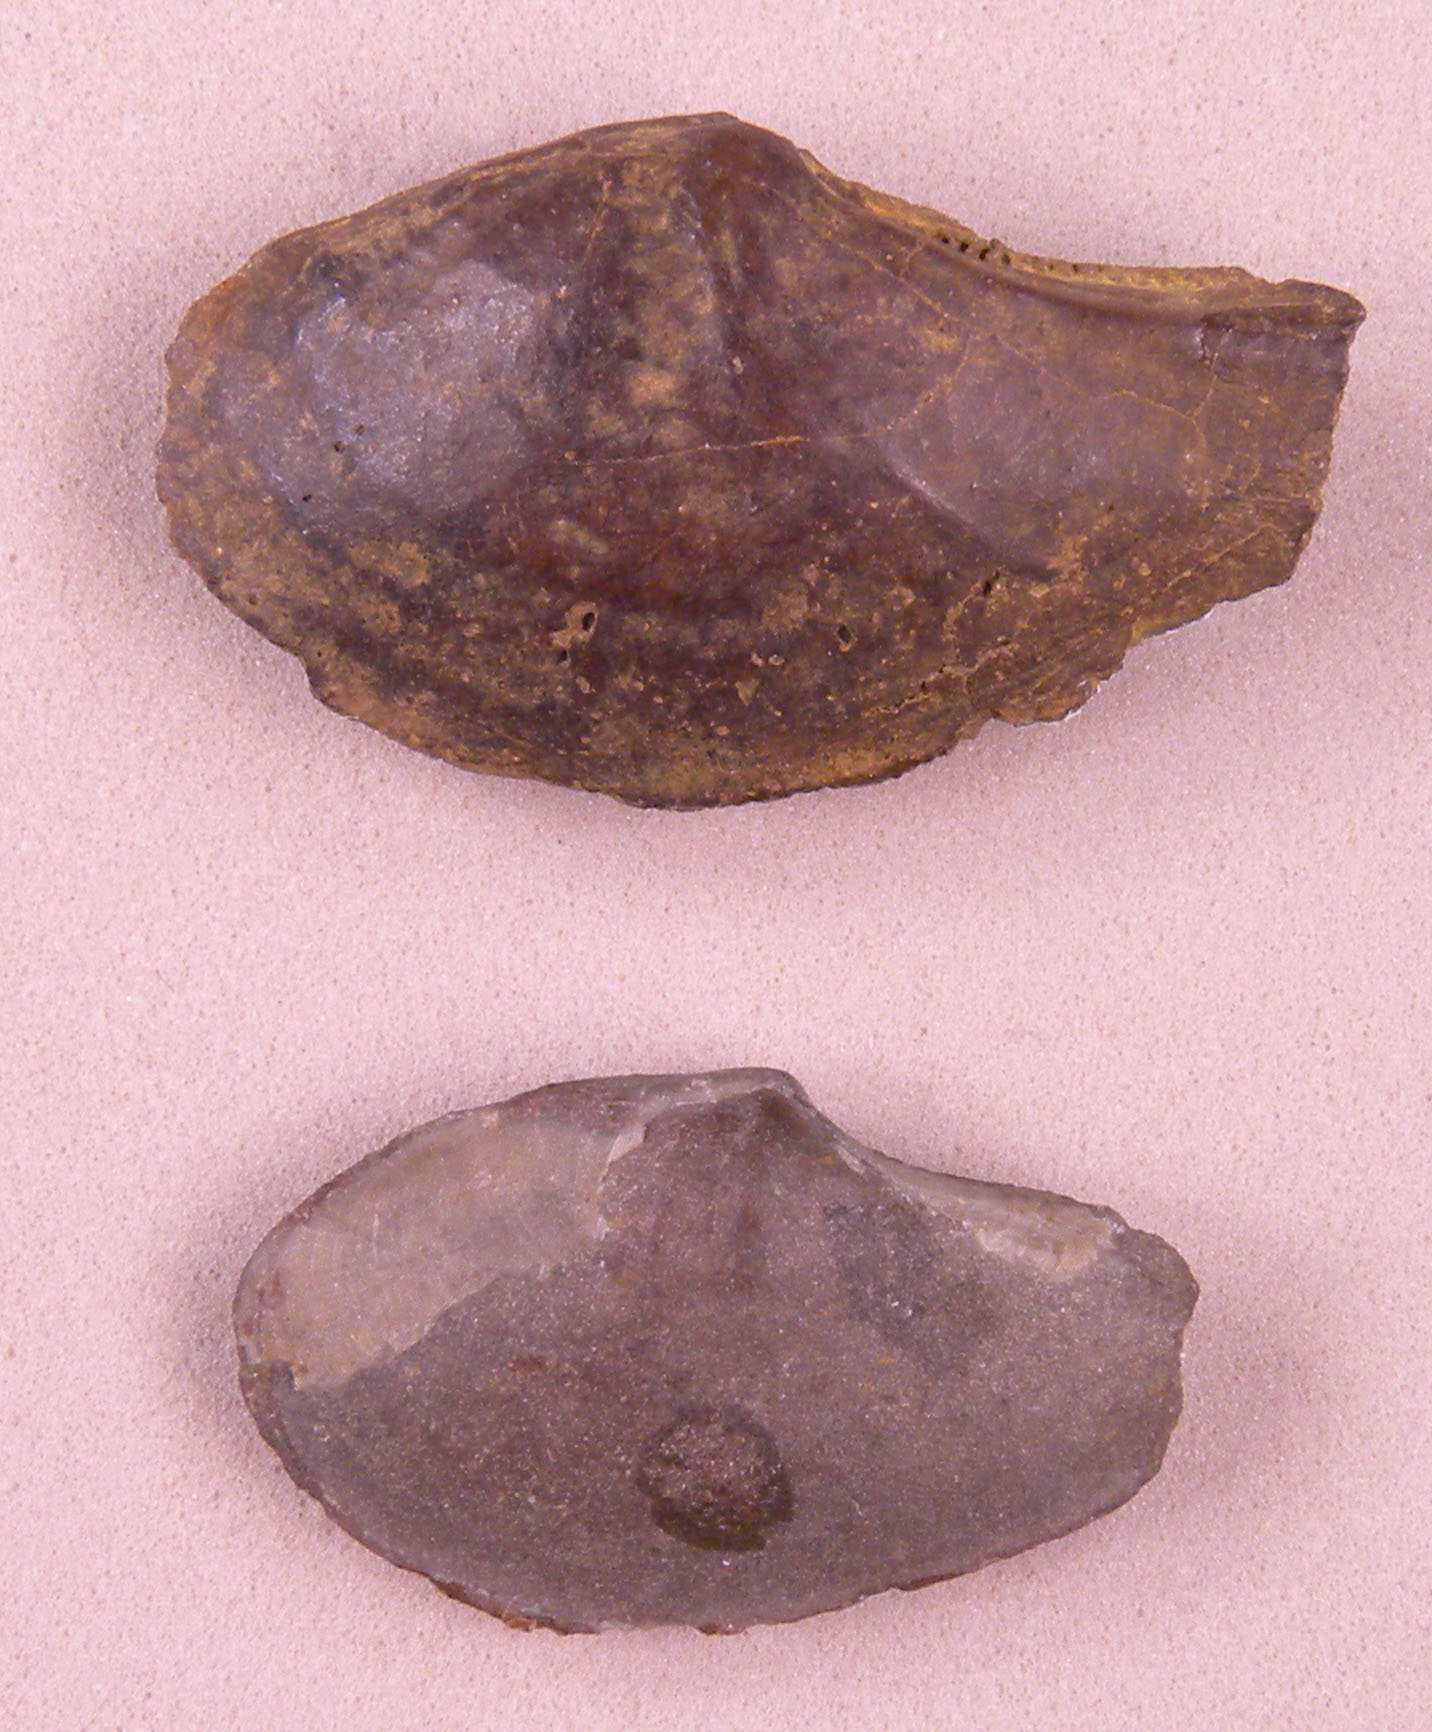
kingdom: Animalia
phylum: Mollusca
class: Bivalvia
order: Nuculanida
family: Polidevciidae
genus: Ryderia
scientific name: Ryderia texturata
